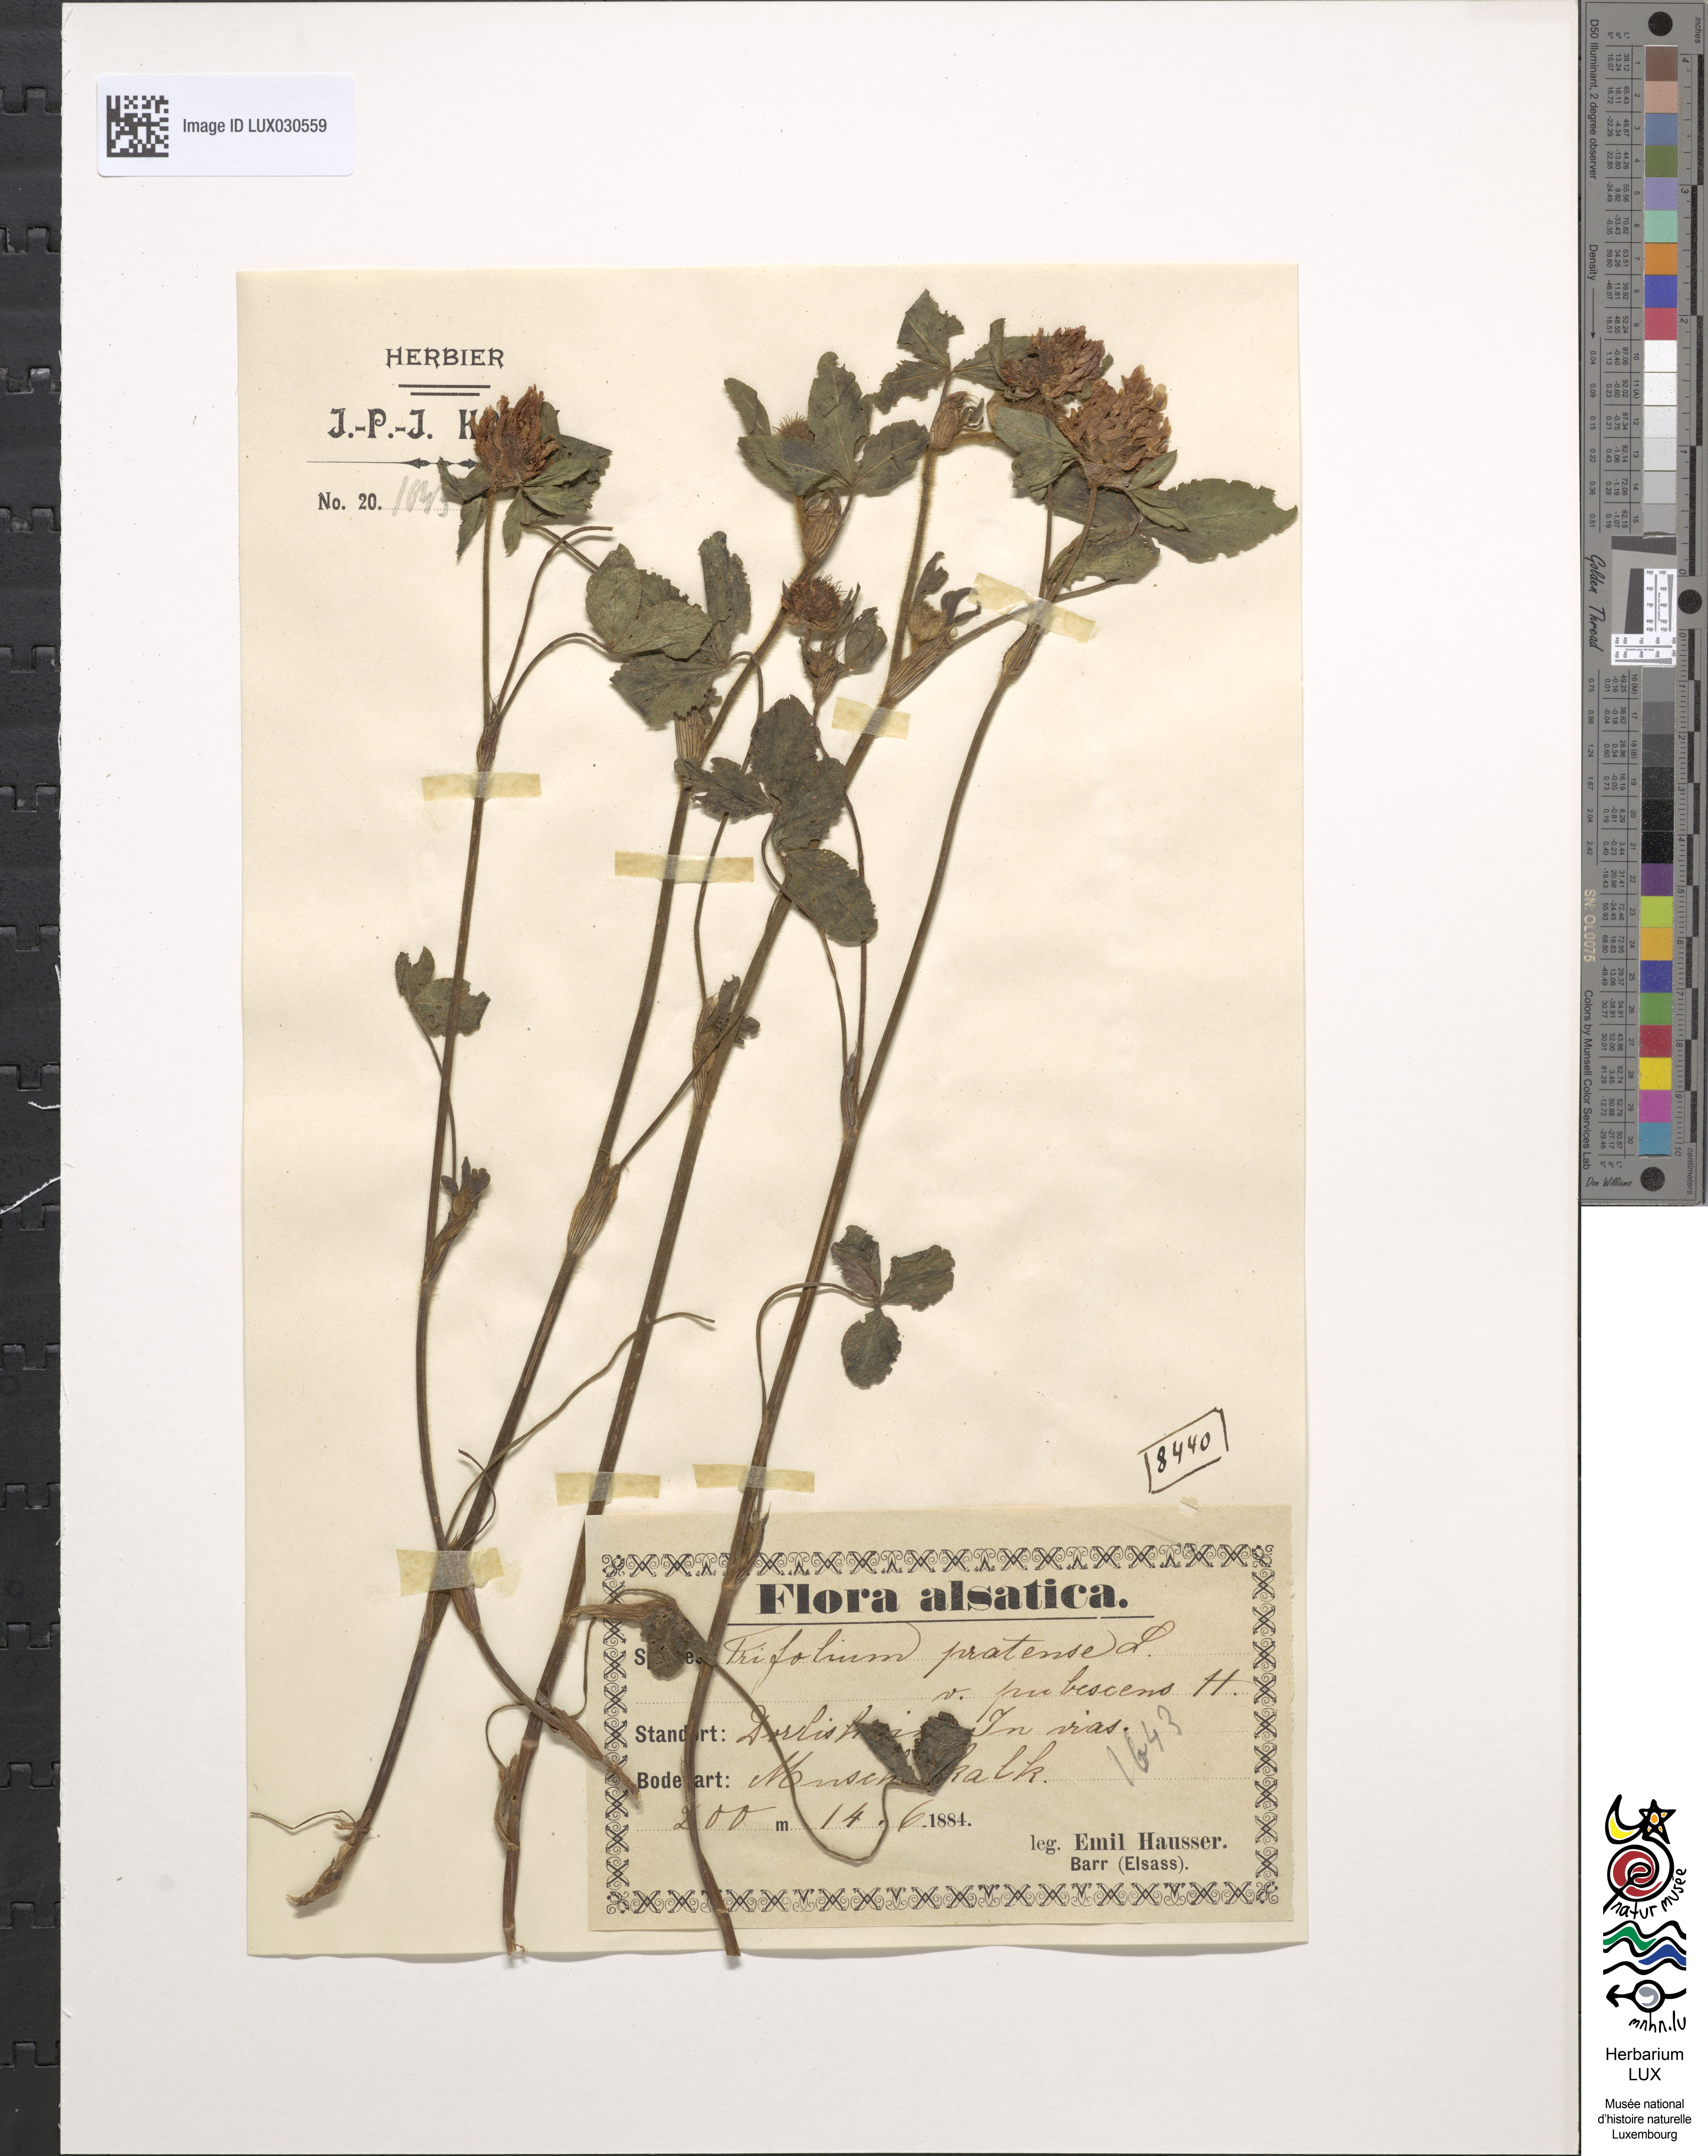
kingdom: Plantae
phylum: Tracheophyta
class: Magnoliopsida
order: Fabales
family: Fabaceae
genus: Trifolium
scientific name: Trifolium pratense
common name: Red clover
